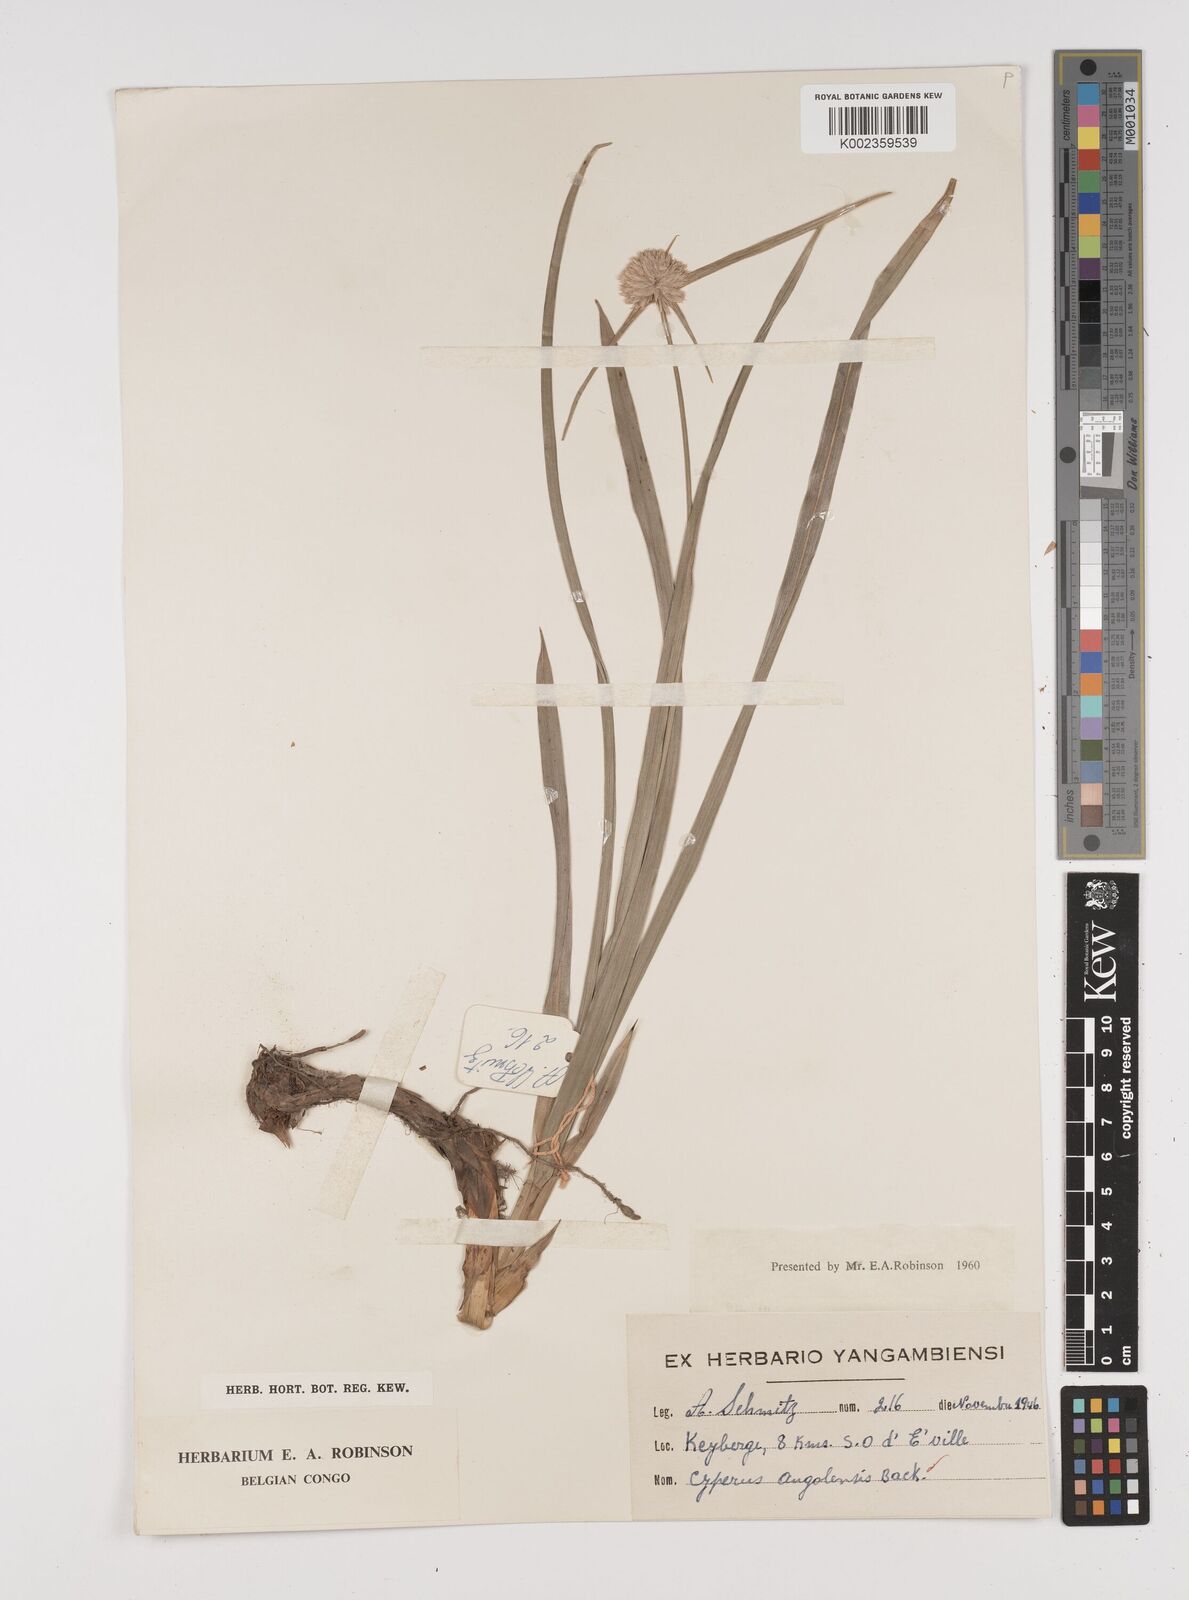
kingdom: Plantae
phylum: Tracheophyta
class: Liliopsida
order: Poales
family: Cyperaceae
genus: Cyperus
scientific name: Cyperus angolensis
